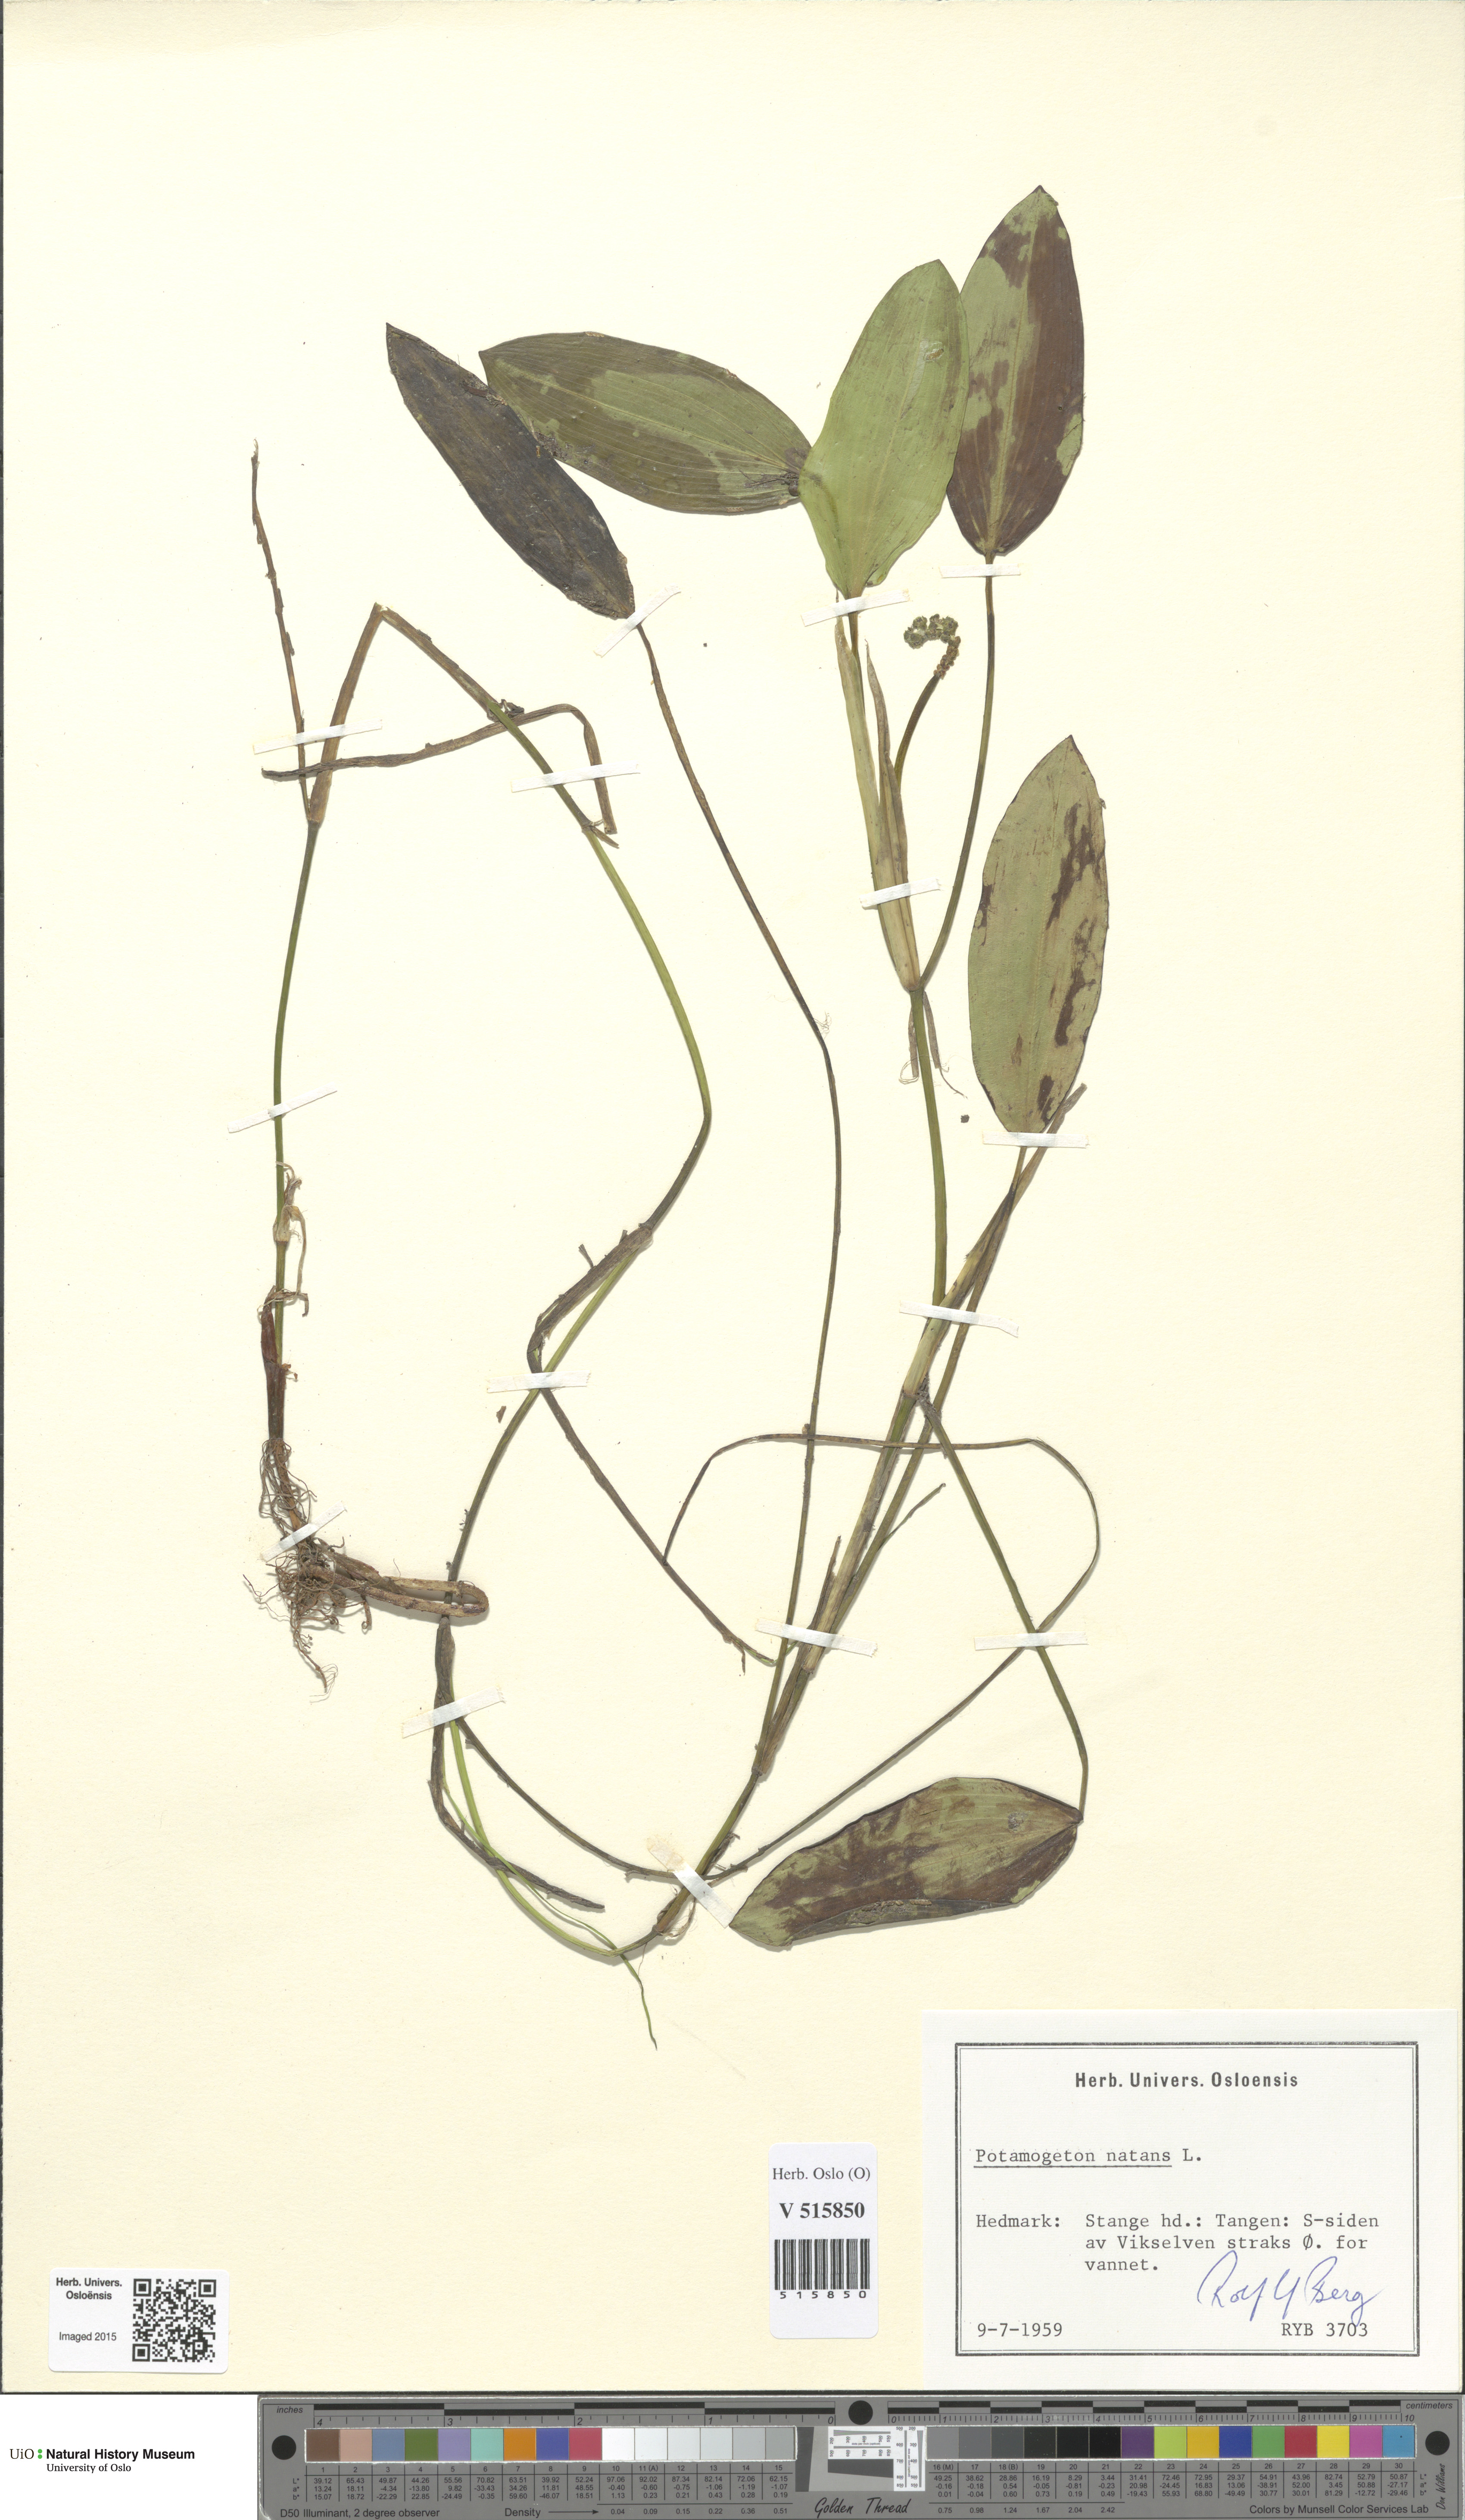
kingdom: Plantae
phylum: Tracheophyta
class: Liliopsida
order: Alismatales
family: Potamogetonaceae
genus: Potamogeton
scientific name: Potamogeton natans
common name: Broad-leaved pondweed
